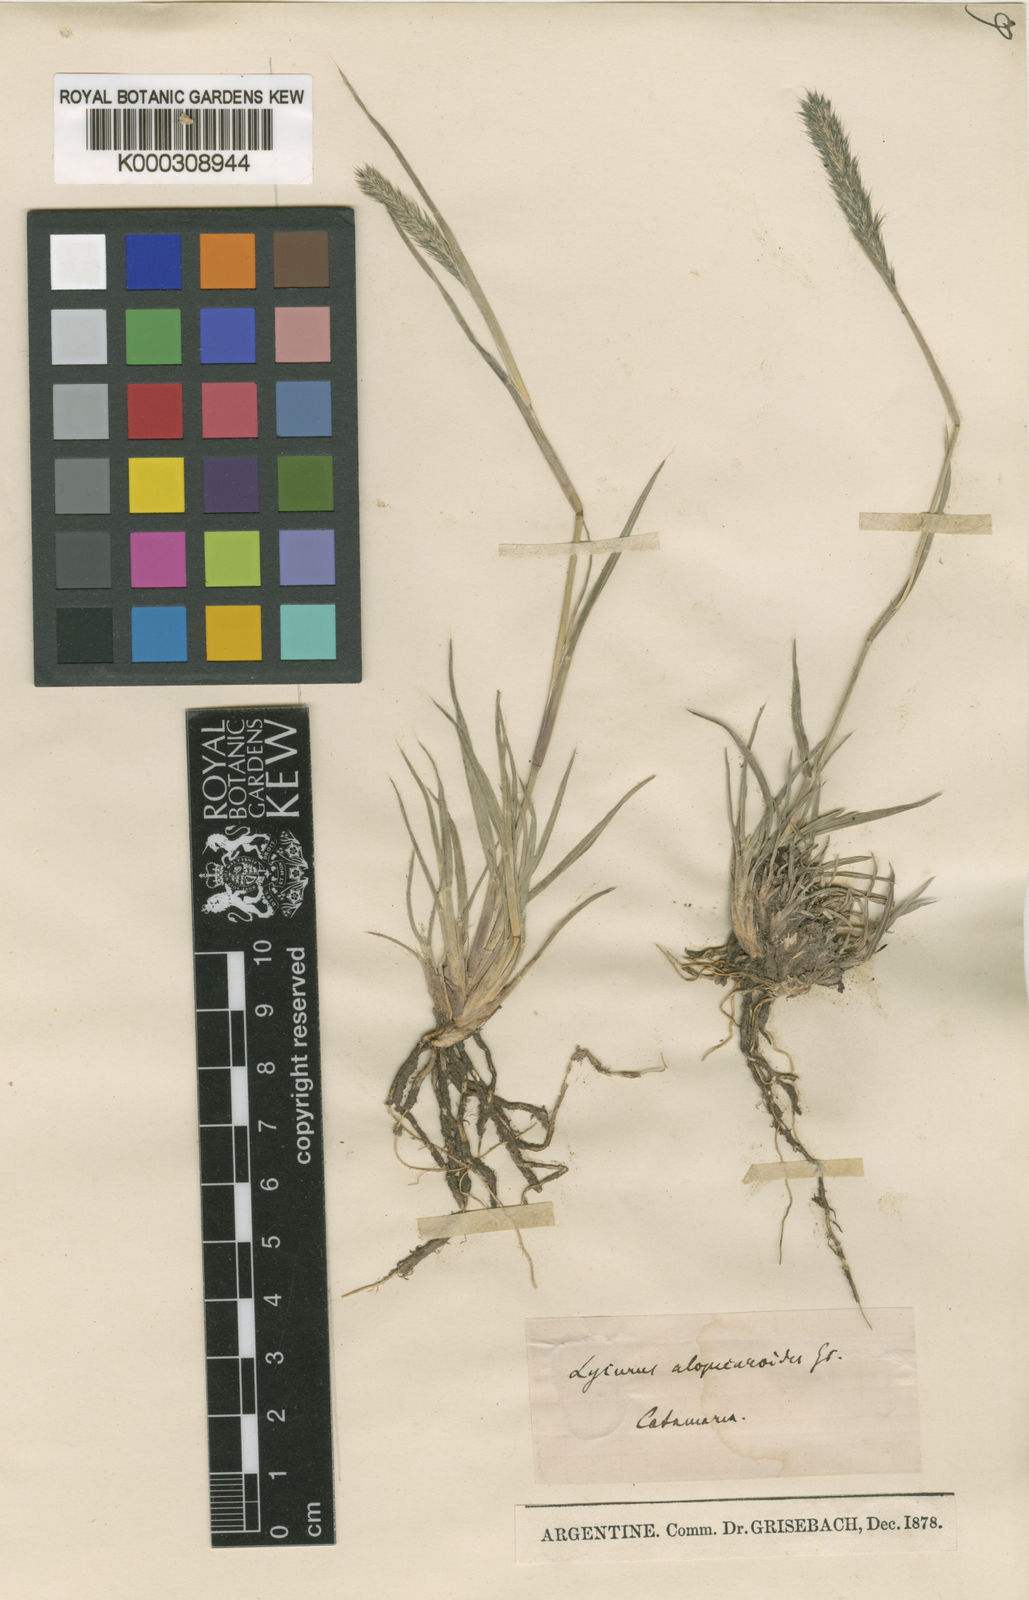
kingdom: Plantae
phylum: Tracheophyta
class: Liliopsida
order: Poales
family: Poaceae
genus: Muhlenbergia
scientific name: Muhlenbergia alopecuroides
